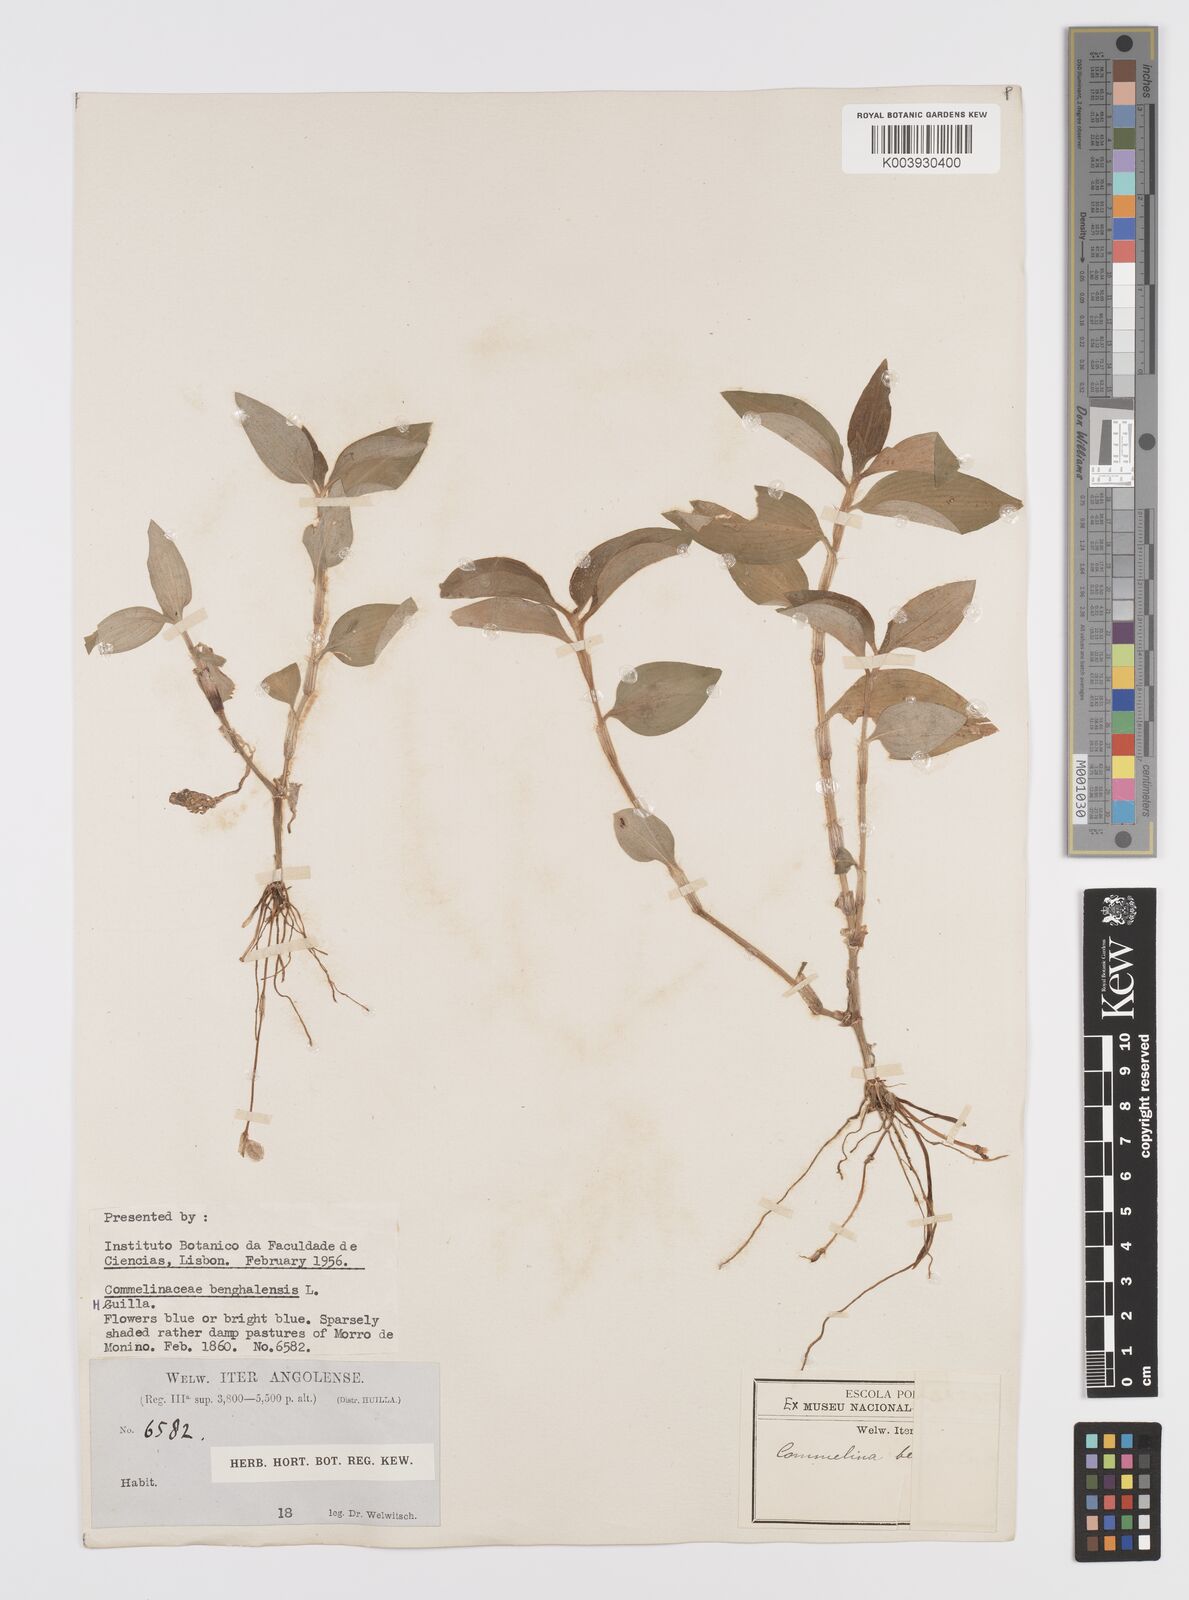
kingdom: Plantae
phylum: Tracheophyta
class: Liliopsida
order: Commelinales
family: Commelinaceae
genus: Commelina
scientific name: Commelina benghalensis
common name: Jio
